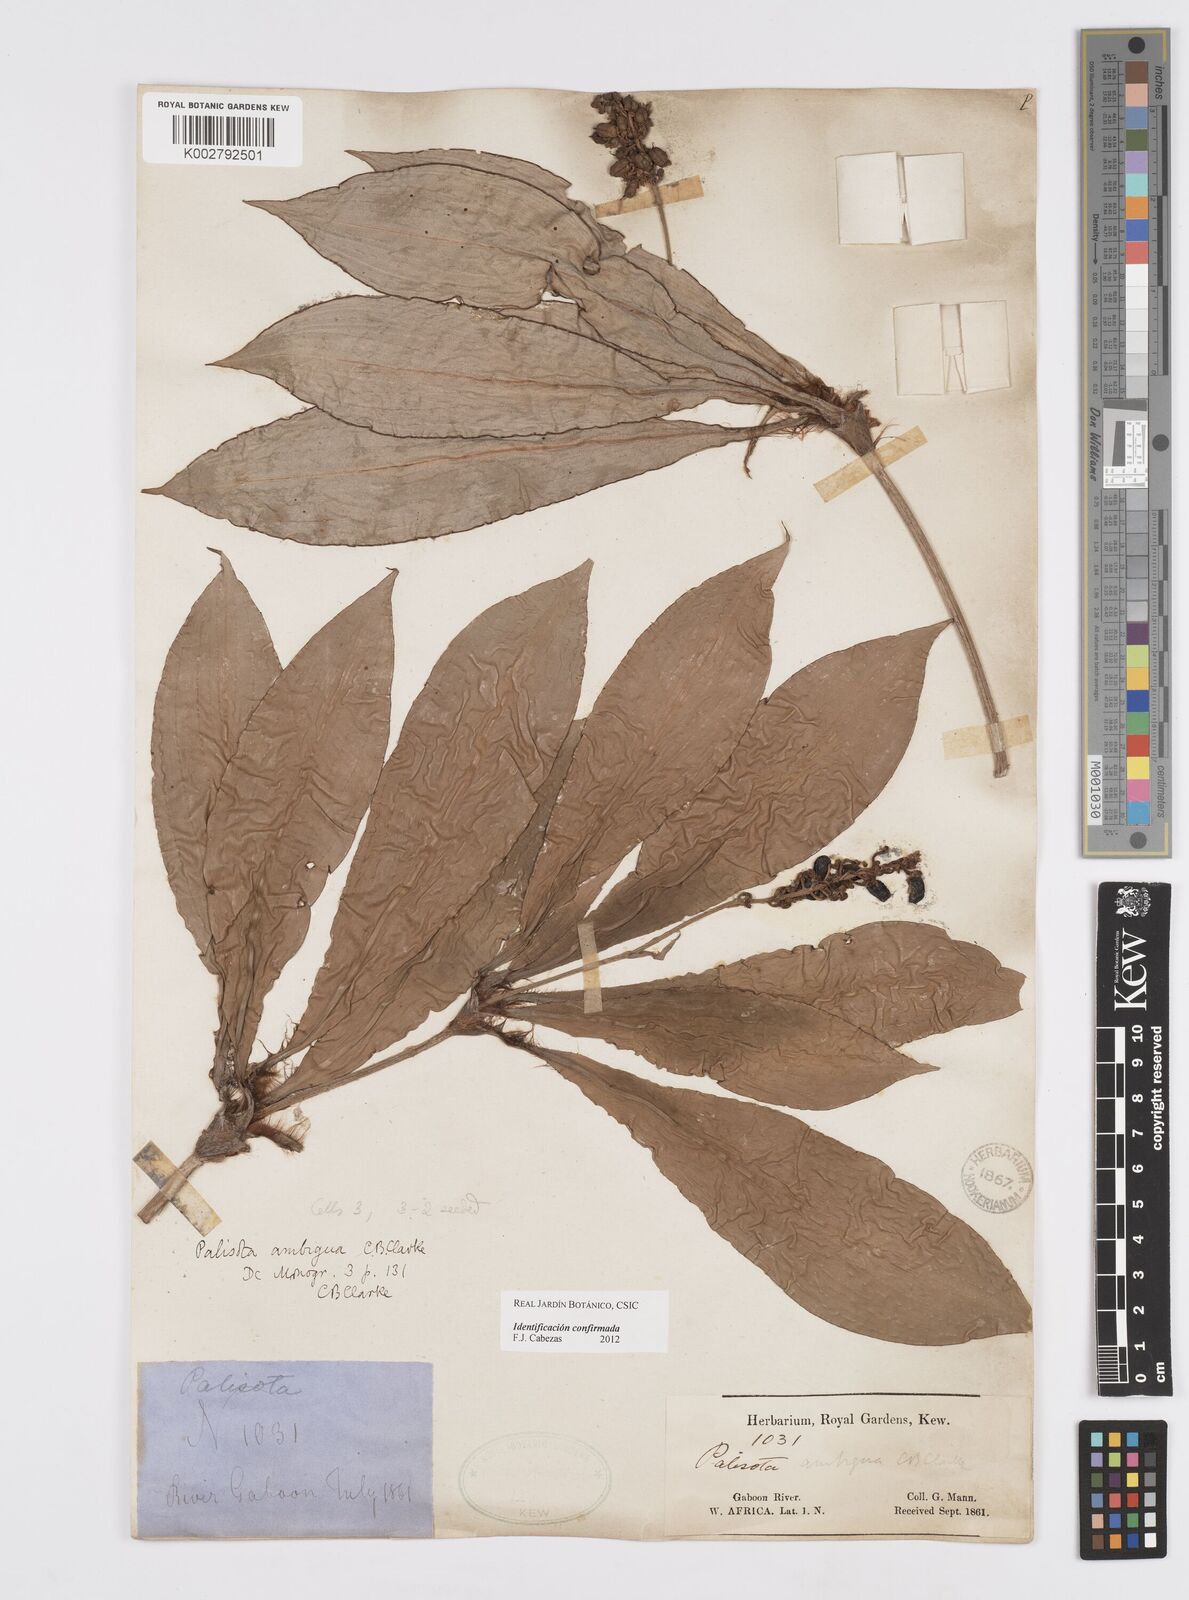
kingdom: Plantae
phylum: Tracheophyta
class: Liliopsida
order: Commelinales
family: Commelinaceae
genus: Palisota
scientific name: Palisota ambigua
